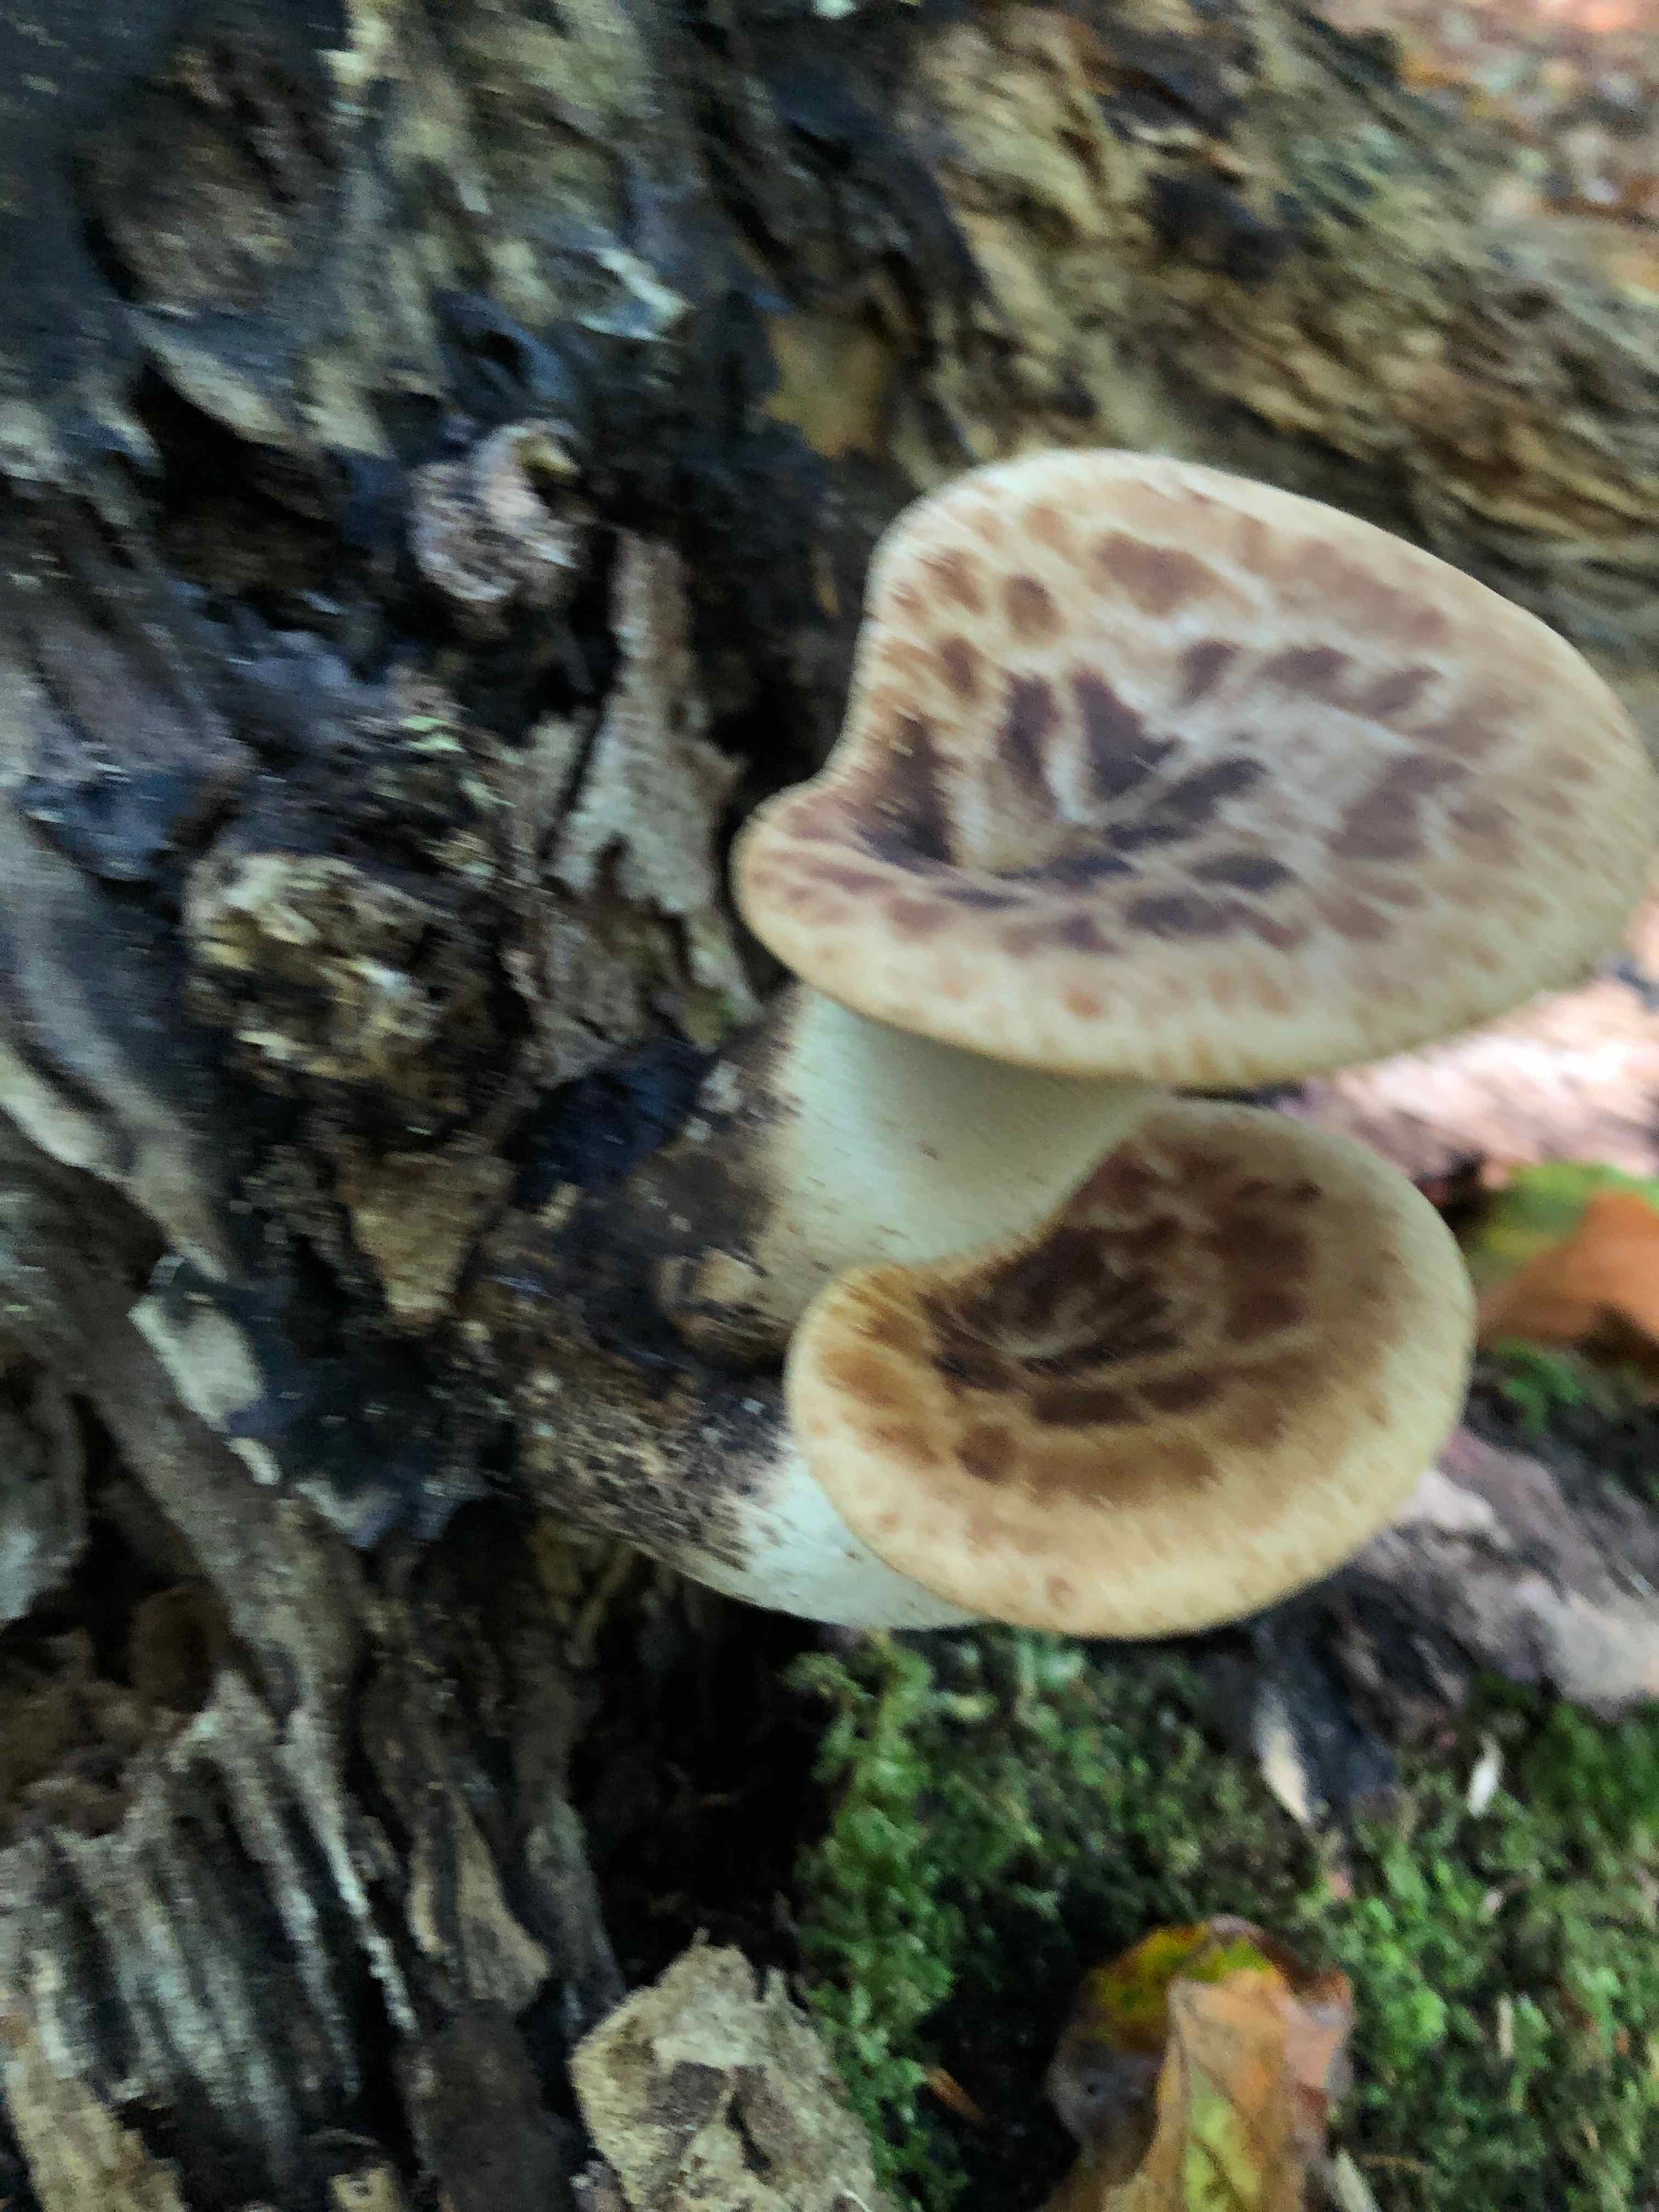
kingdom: Fungi
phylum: Basidiomycota
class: Agaricomycetes
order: Polyporales
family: Polyporaceae
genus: Cerioporus
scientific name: Cerioporus squamosus
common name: skællet stilkporesvamp
